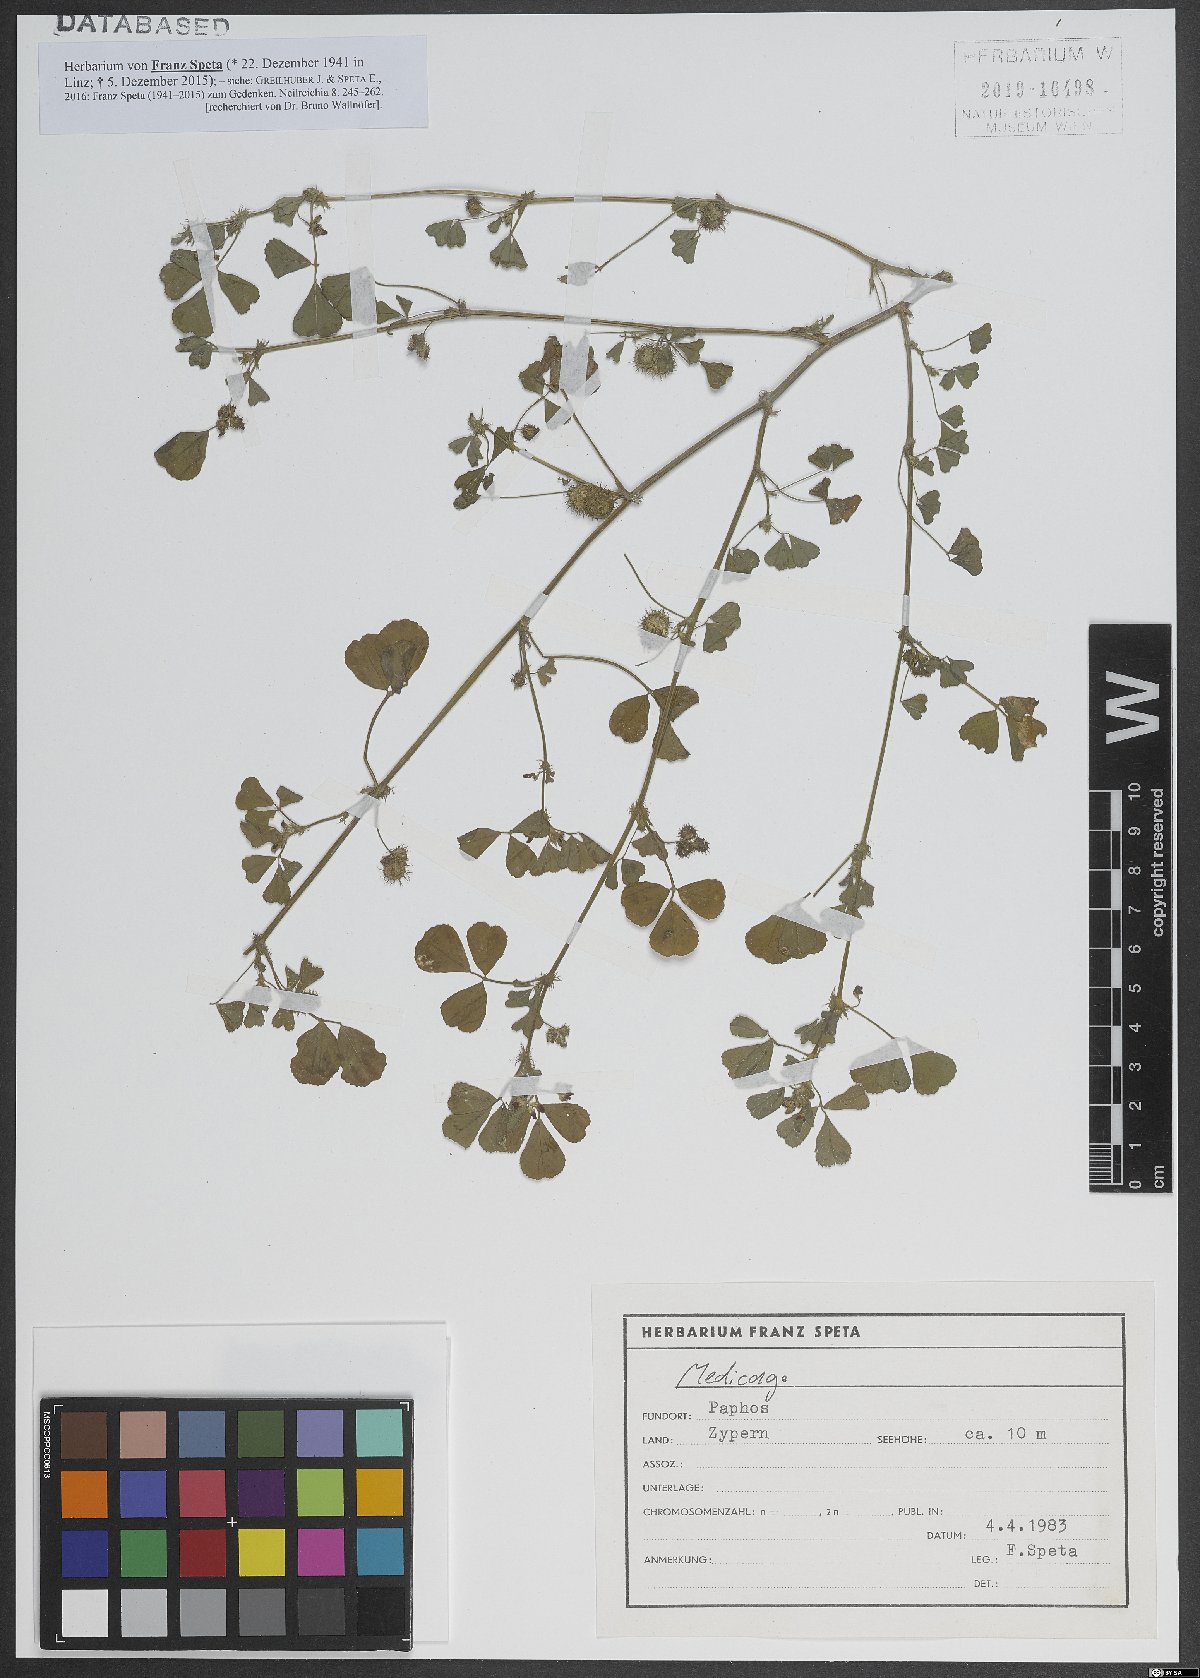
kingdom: Plantae
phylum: Tracheophyta
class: Magnoliopsida
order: Fabales
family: Fabaceae
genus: Medicago
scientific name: Medicago
